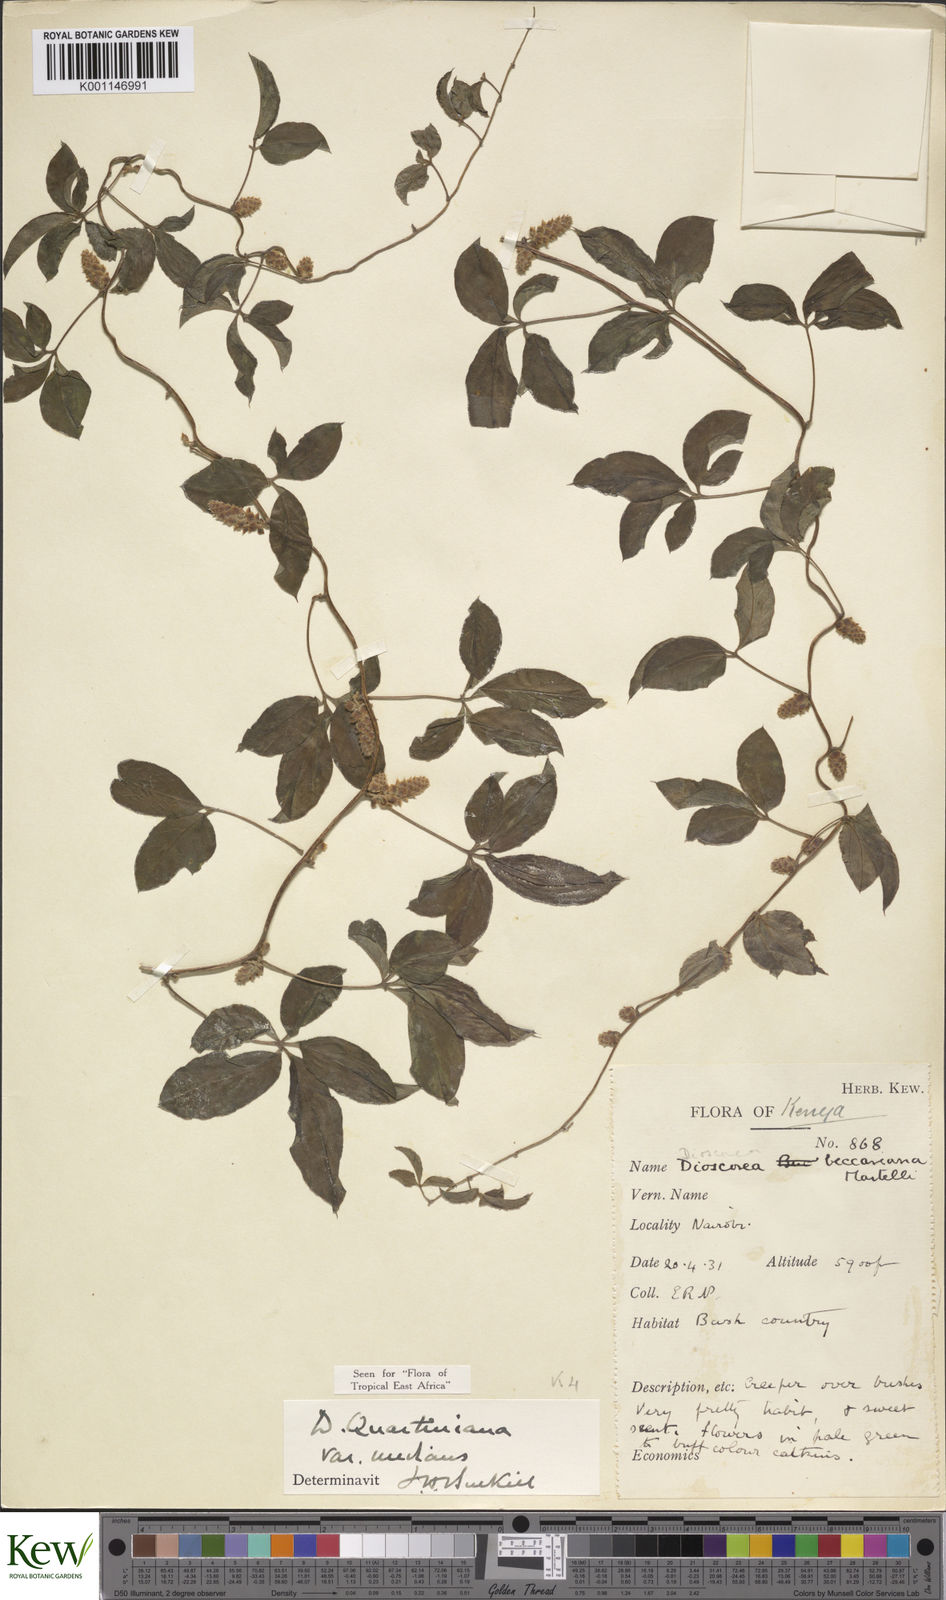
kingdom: Plantae
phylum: Tracheophyta
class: Liliopsida
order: Dioscoreales
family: Dioscoreaceae
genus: Dioscorea
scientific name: Dioscorea quartiniana
